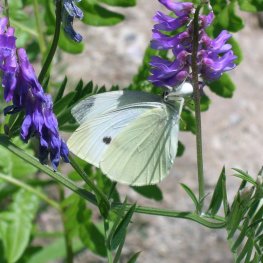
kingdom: Animalia
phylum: Arthropoda
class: Insecta
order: Lepidoptera
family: Pieridae
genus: Pieris
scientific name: Pieris rapae
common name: Cabbage White
